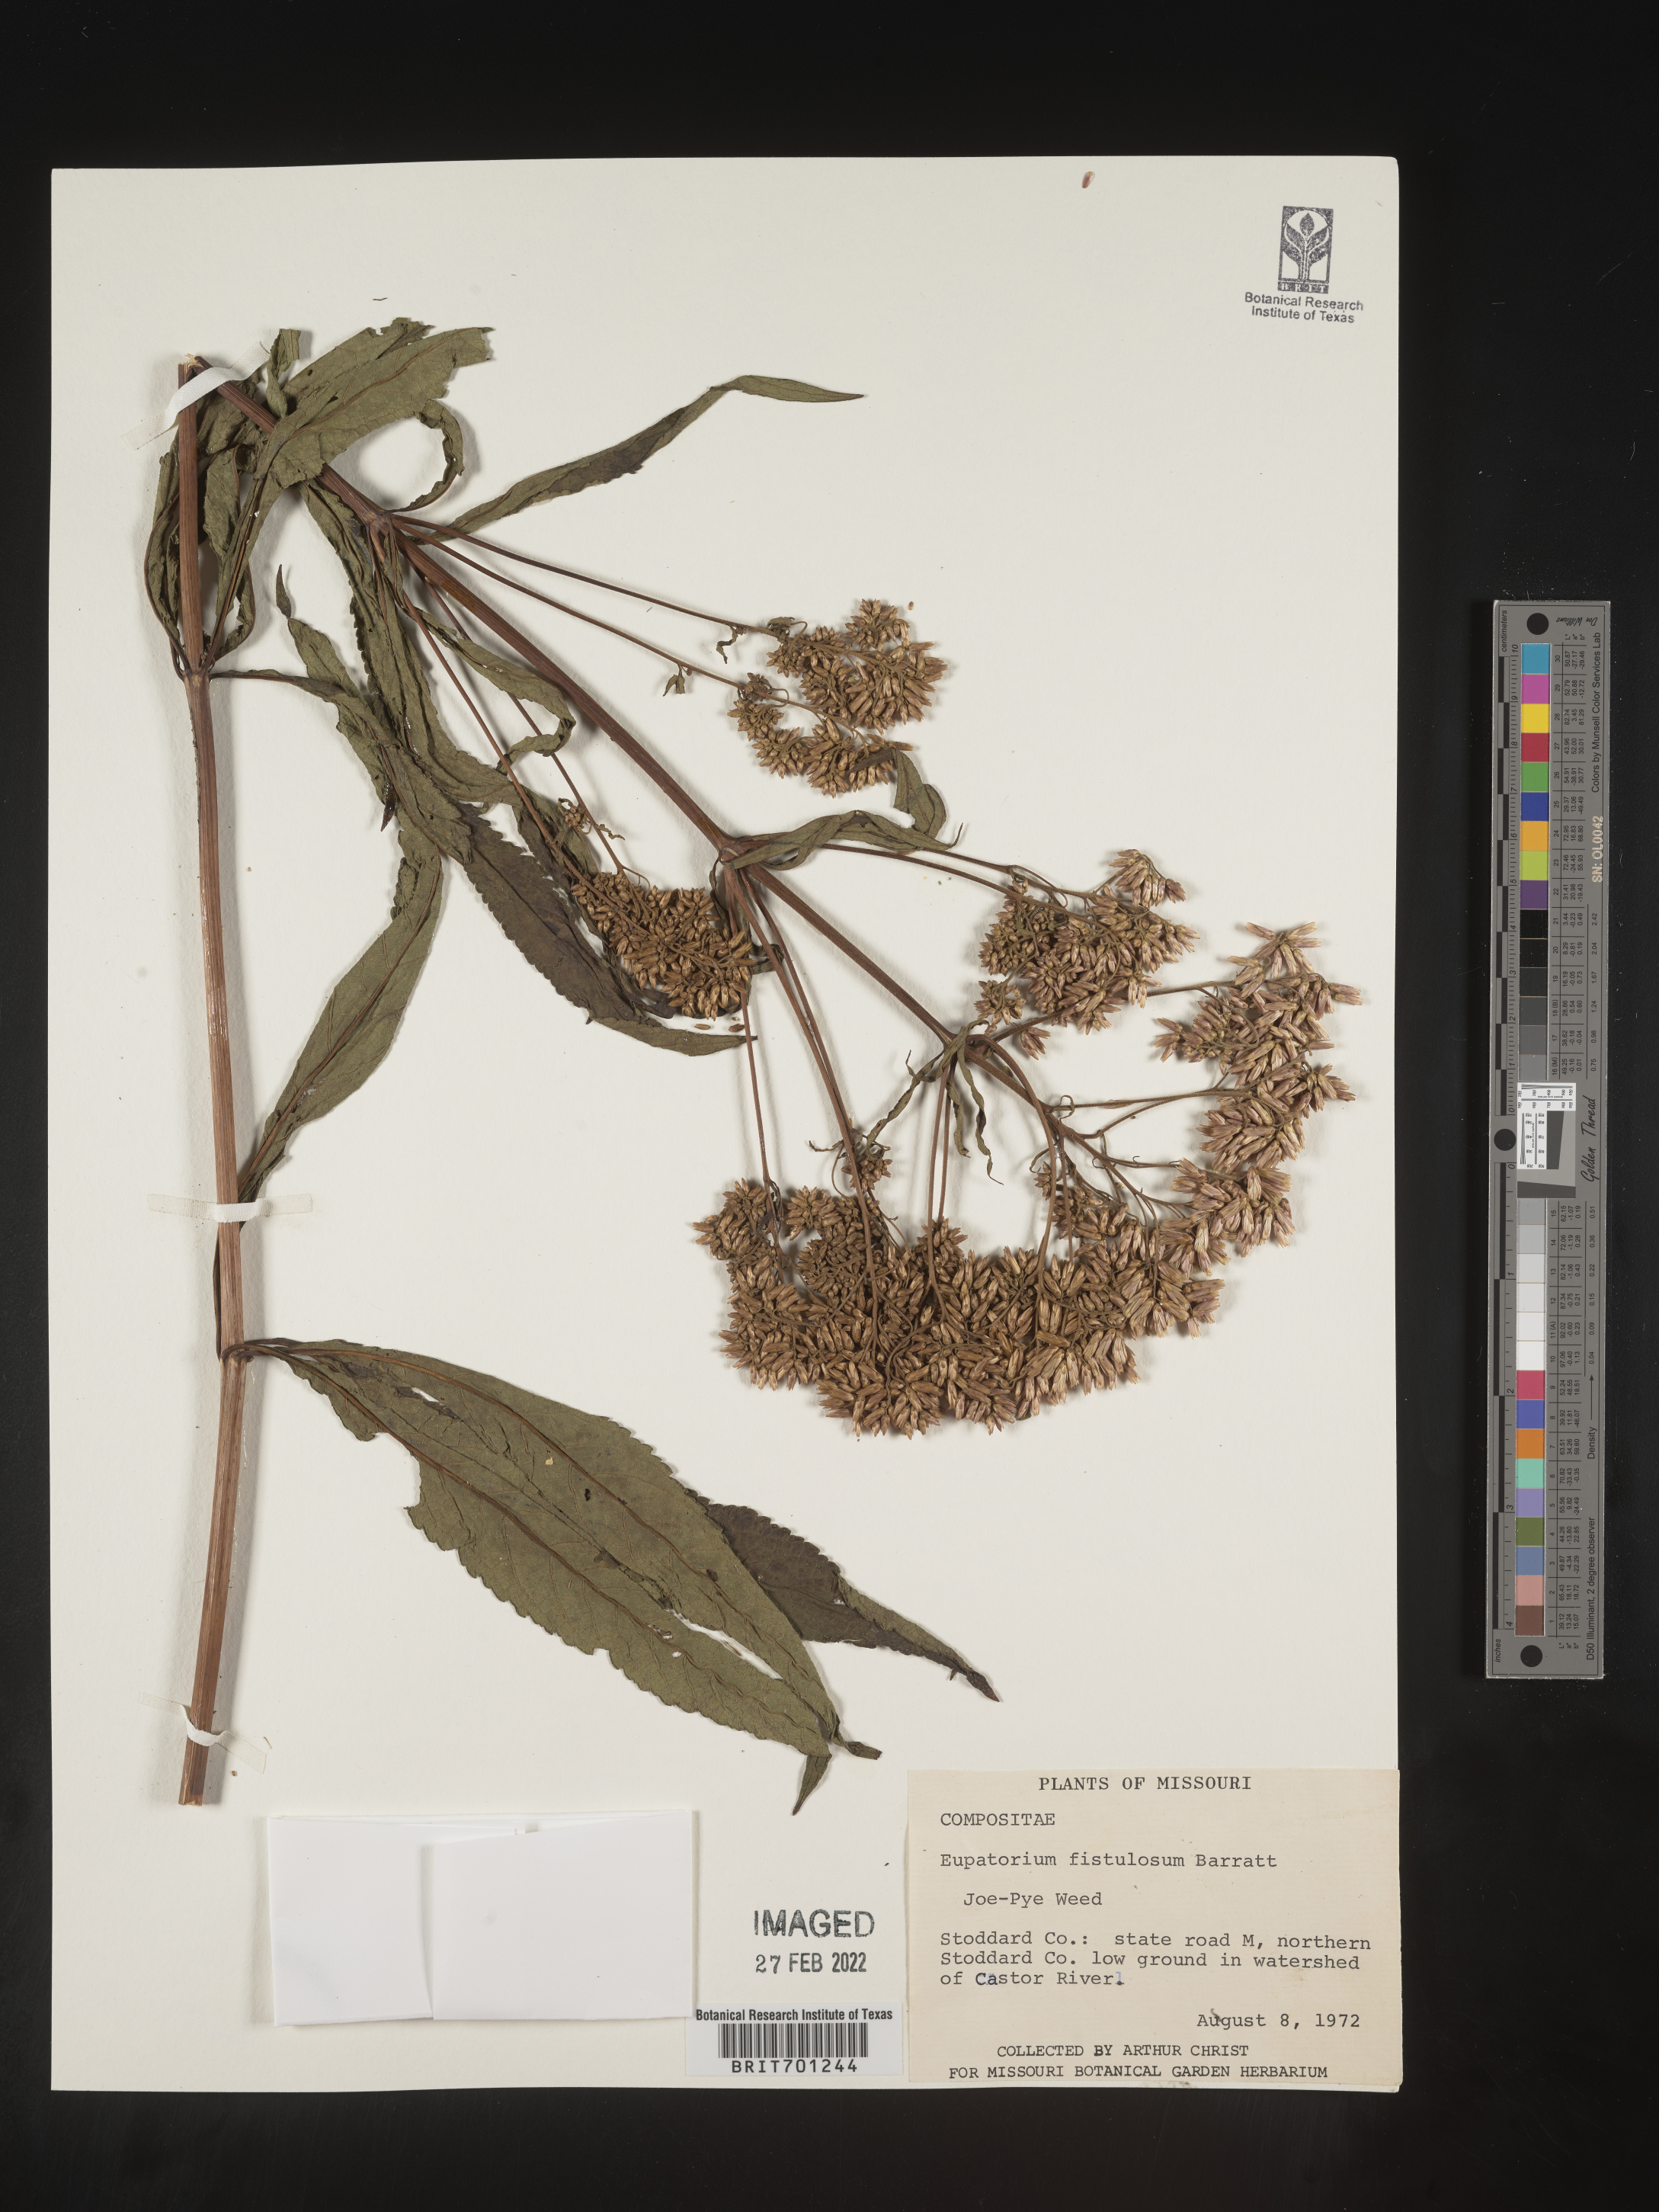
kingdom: Plantae
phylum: Tracheophyta
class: Magnoliopsida
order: Asterales
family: Asteraceae
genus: Eutrochium
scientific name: Eutrochium fistulosum
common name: Trumpetweed
